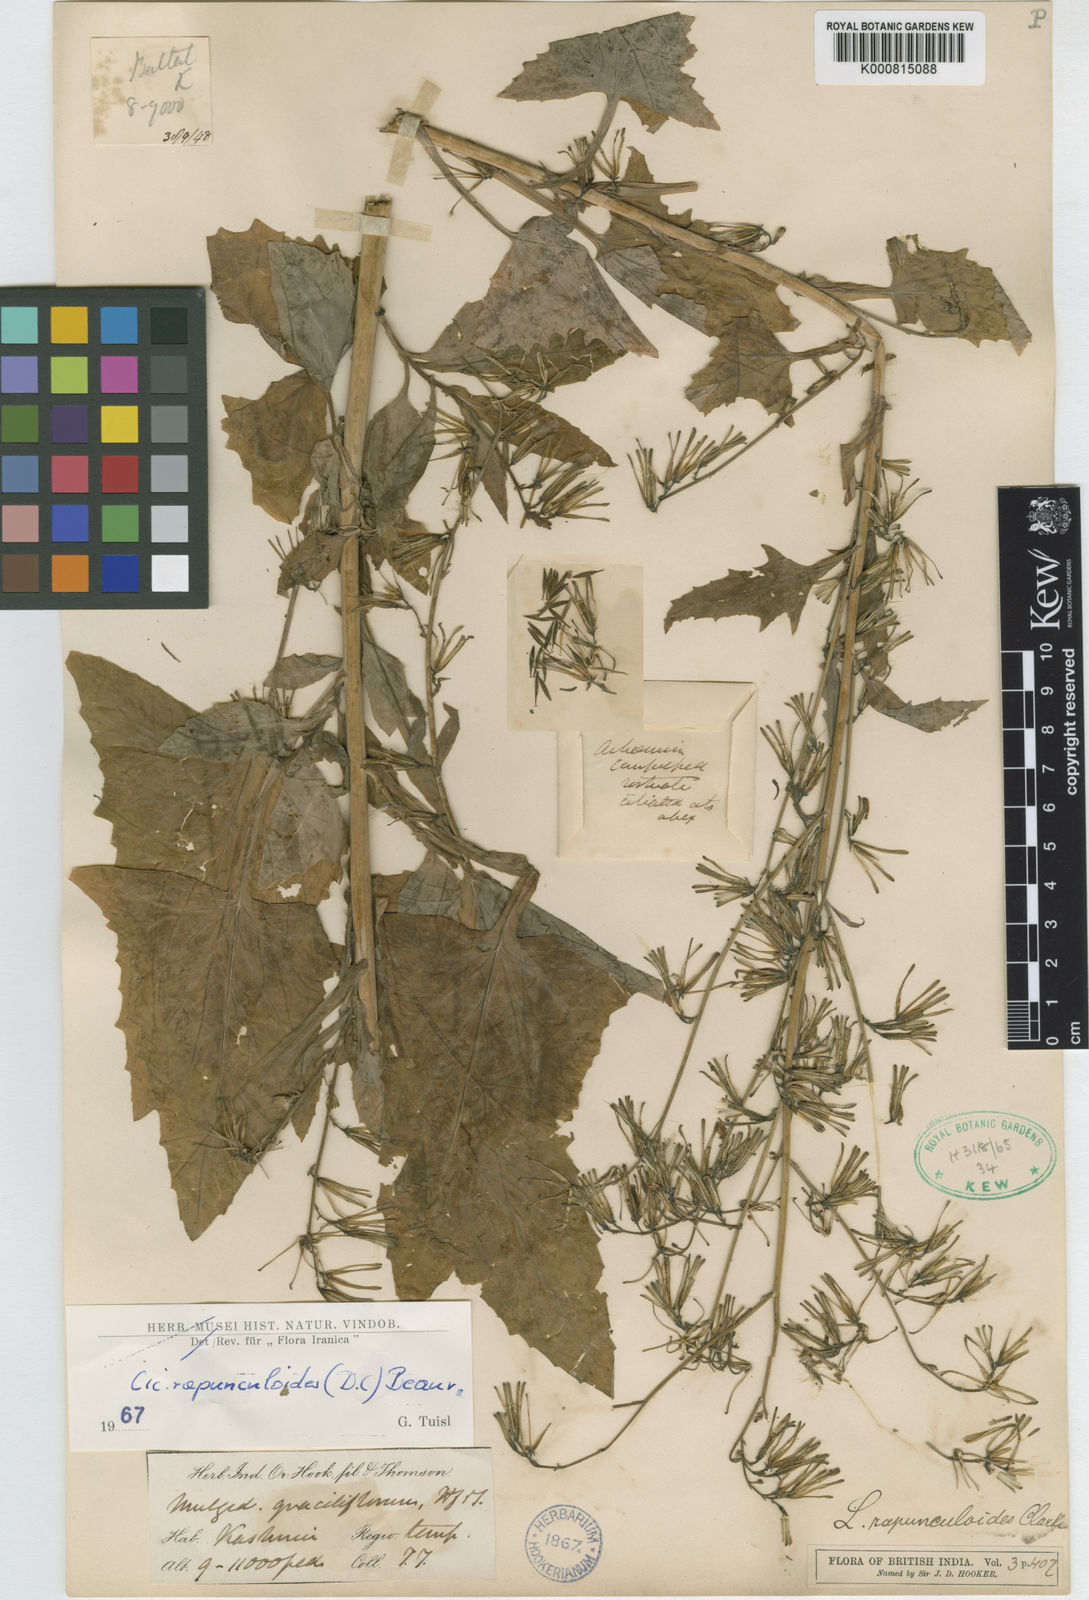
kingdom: Plantae
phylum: Tracheophyta
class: Magnoliopsida
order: Asterales
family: Asteraceae
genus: Kovalevskiella
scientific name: Kovalevskiella rapunculoides
